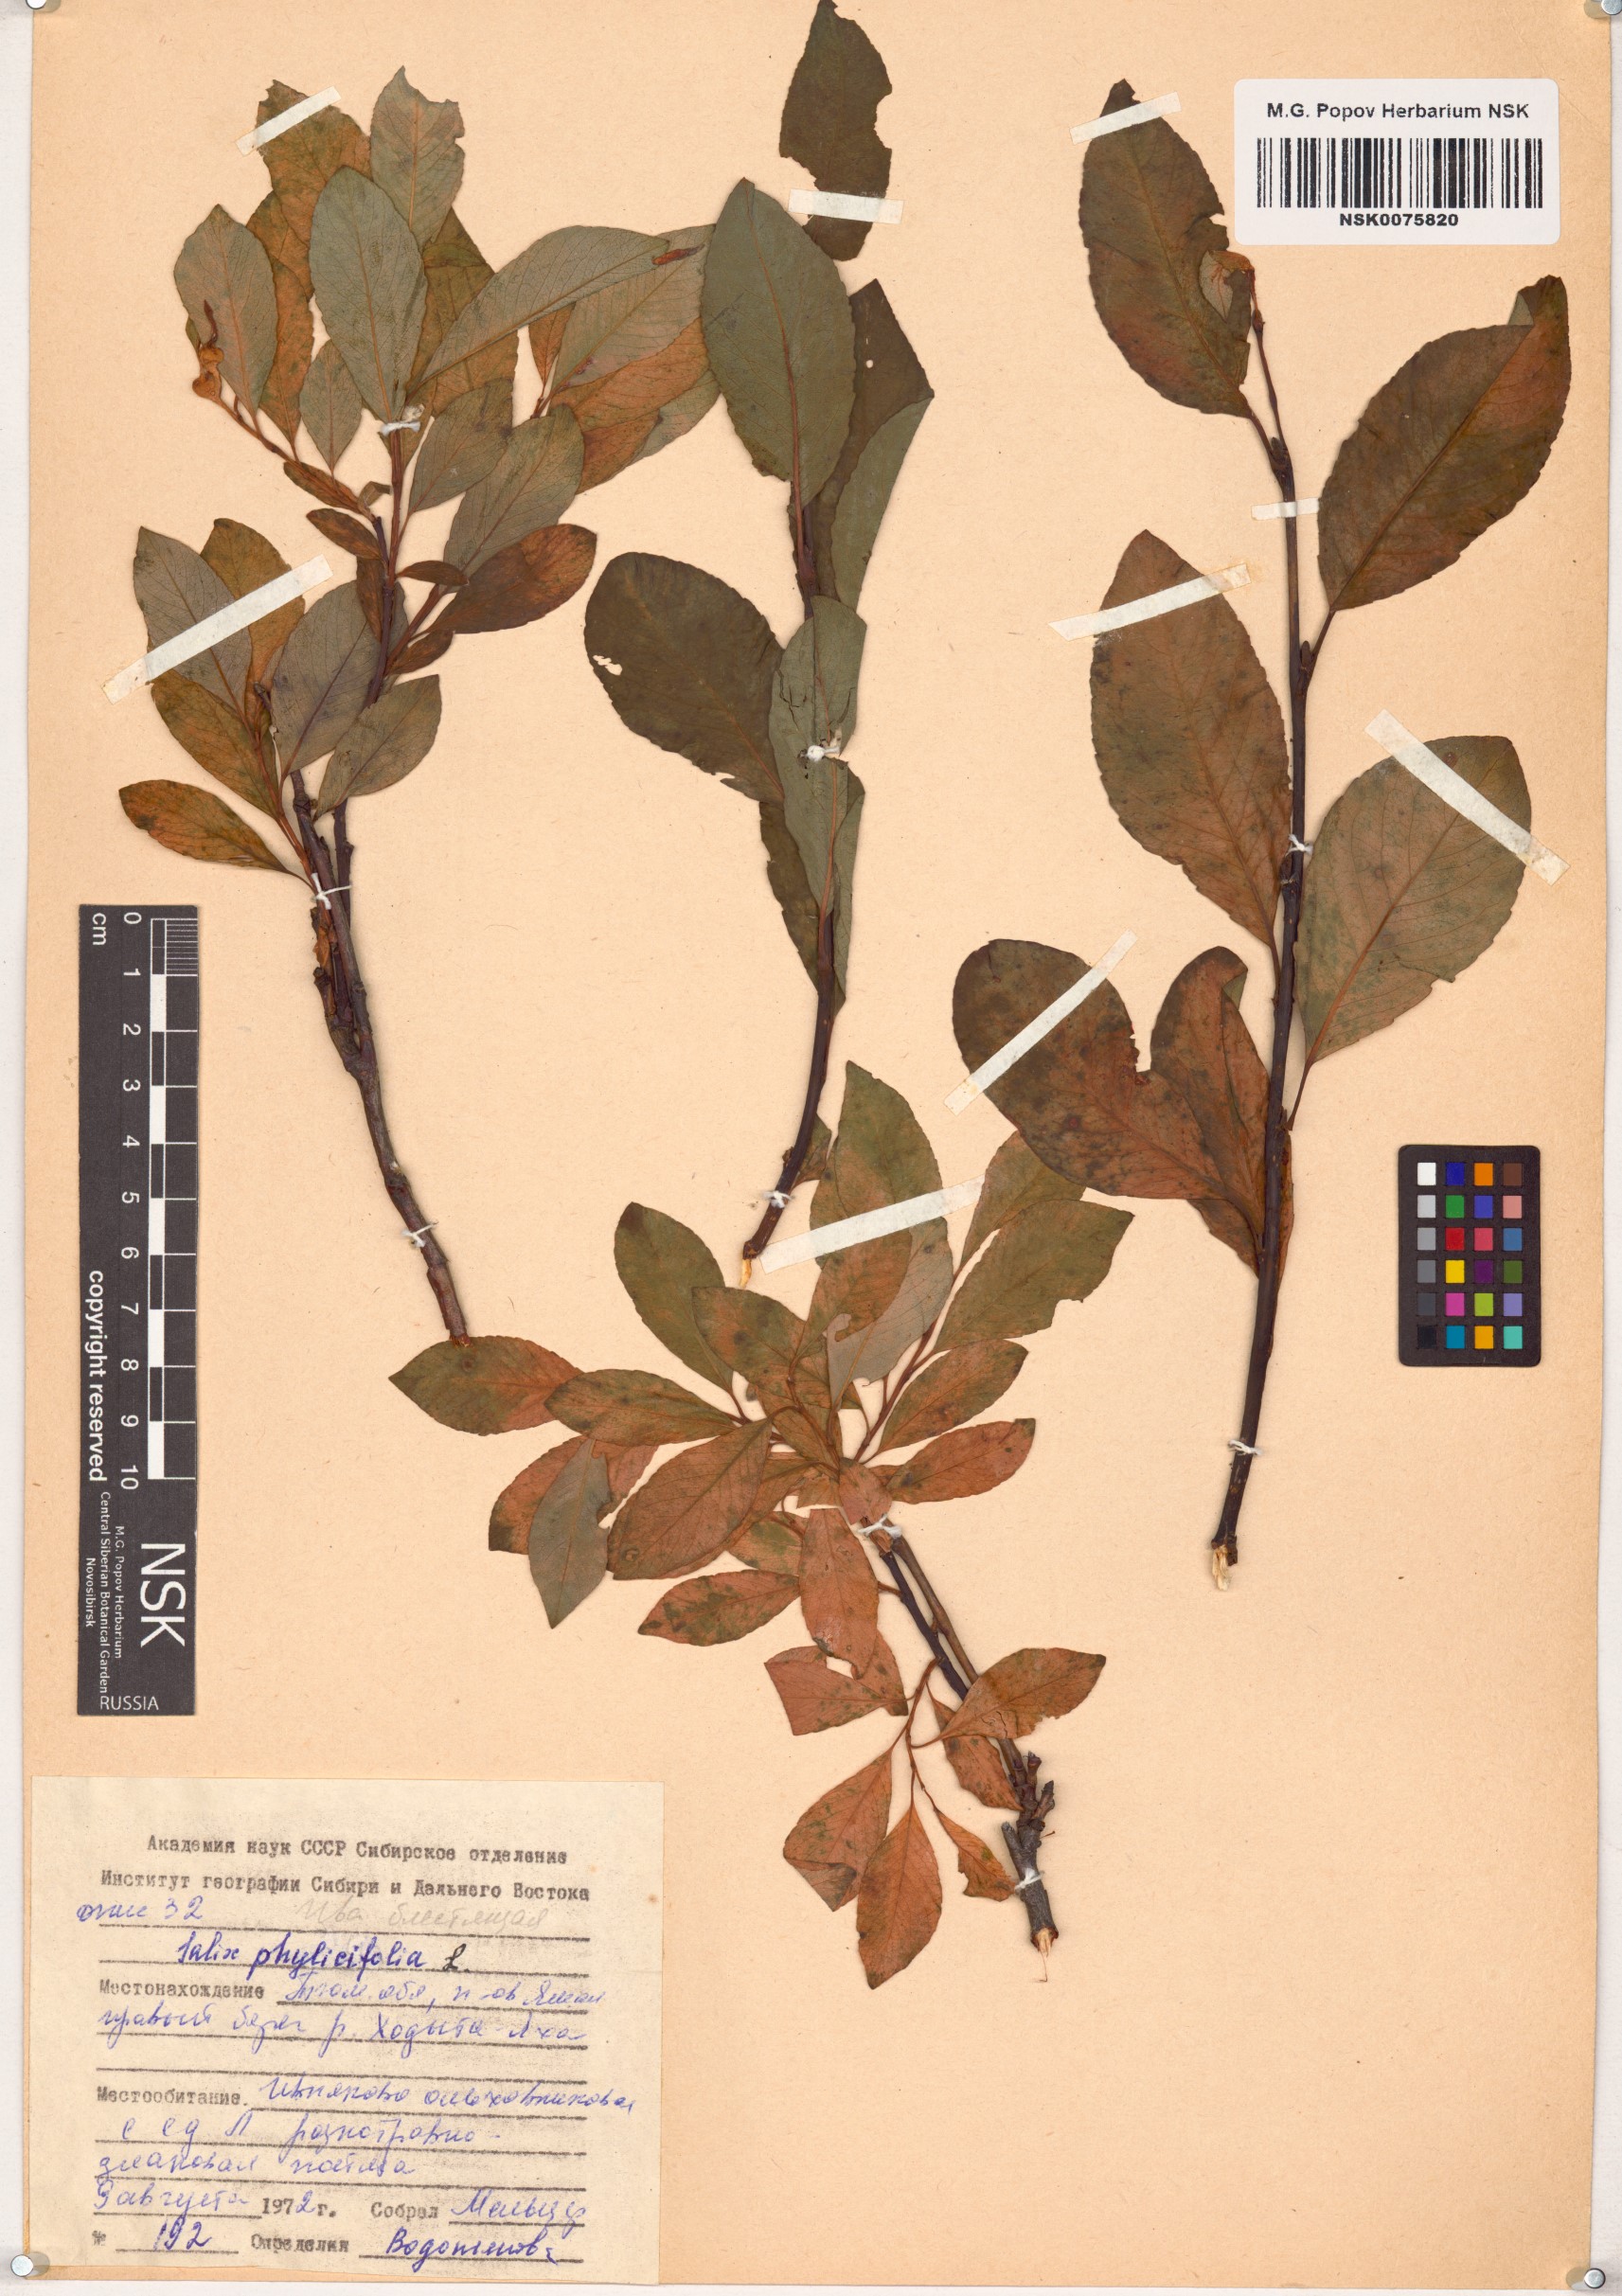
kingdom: Plantae
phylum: Tracheophyta
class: Magnoliopsida
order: Malpighiales
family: Salicaceae
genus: Salix
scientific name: Salix phylicifolia
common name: Tea-leaved willow
